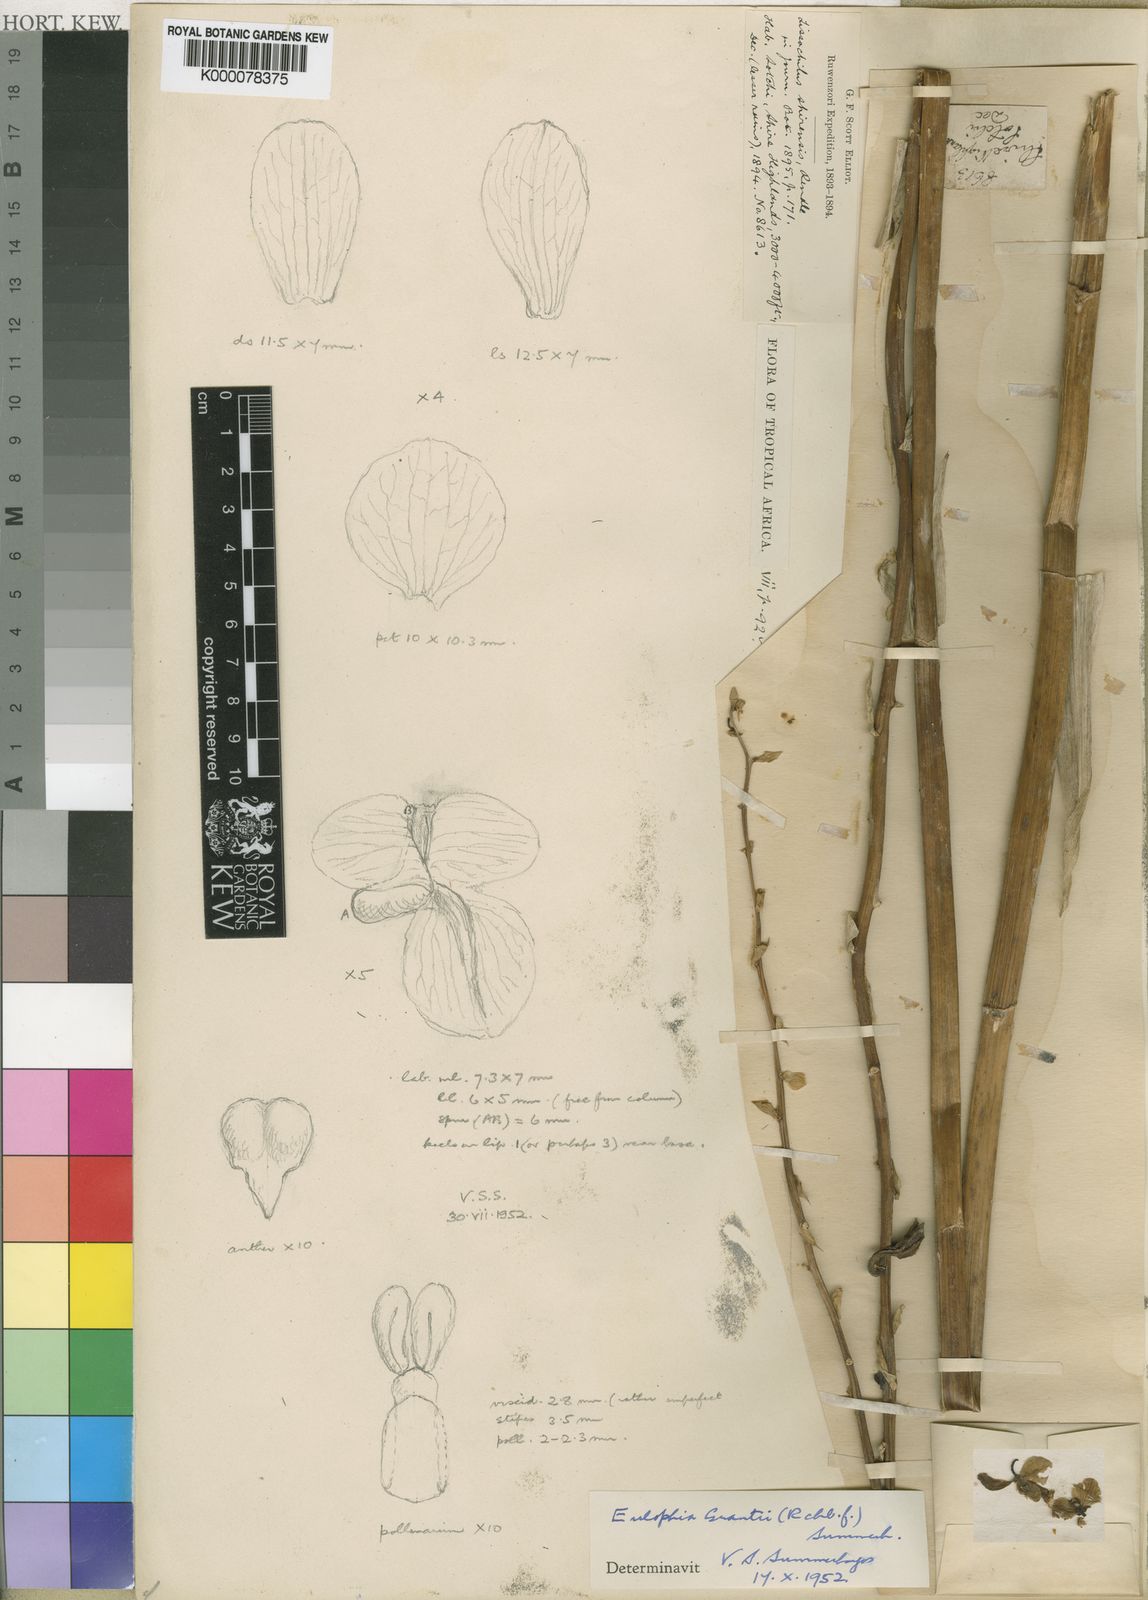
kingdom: Plantae
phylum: Tracheophyta
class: Liliopsida
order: Asparagales
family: Orchidaceae
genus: Eulophia
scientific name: Eulophia streptopetala
